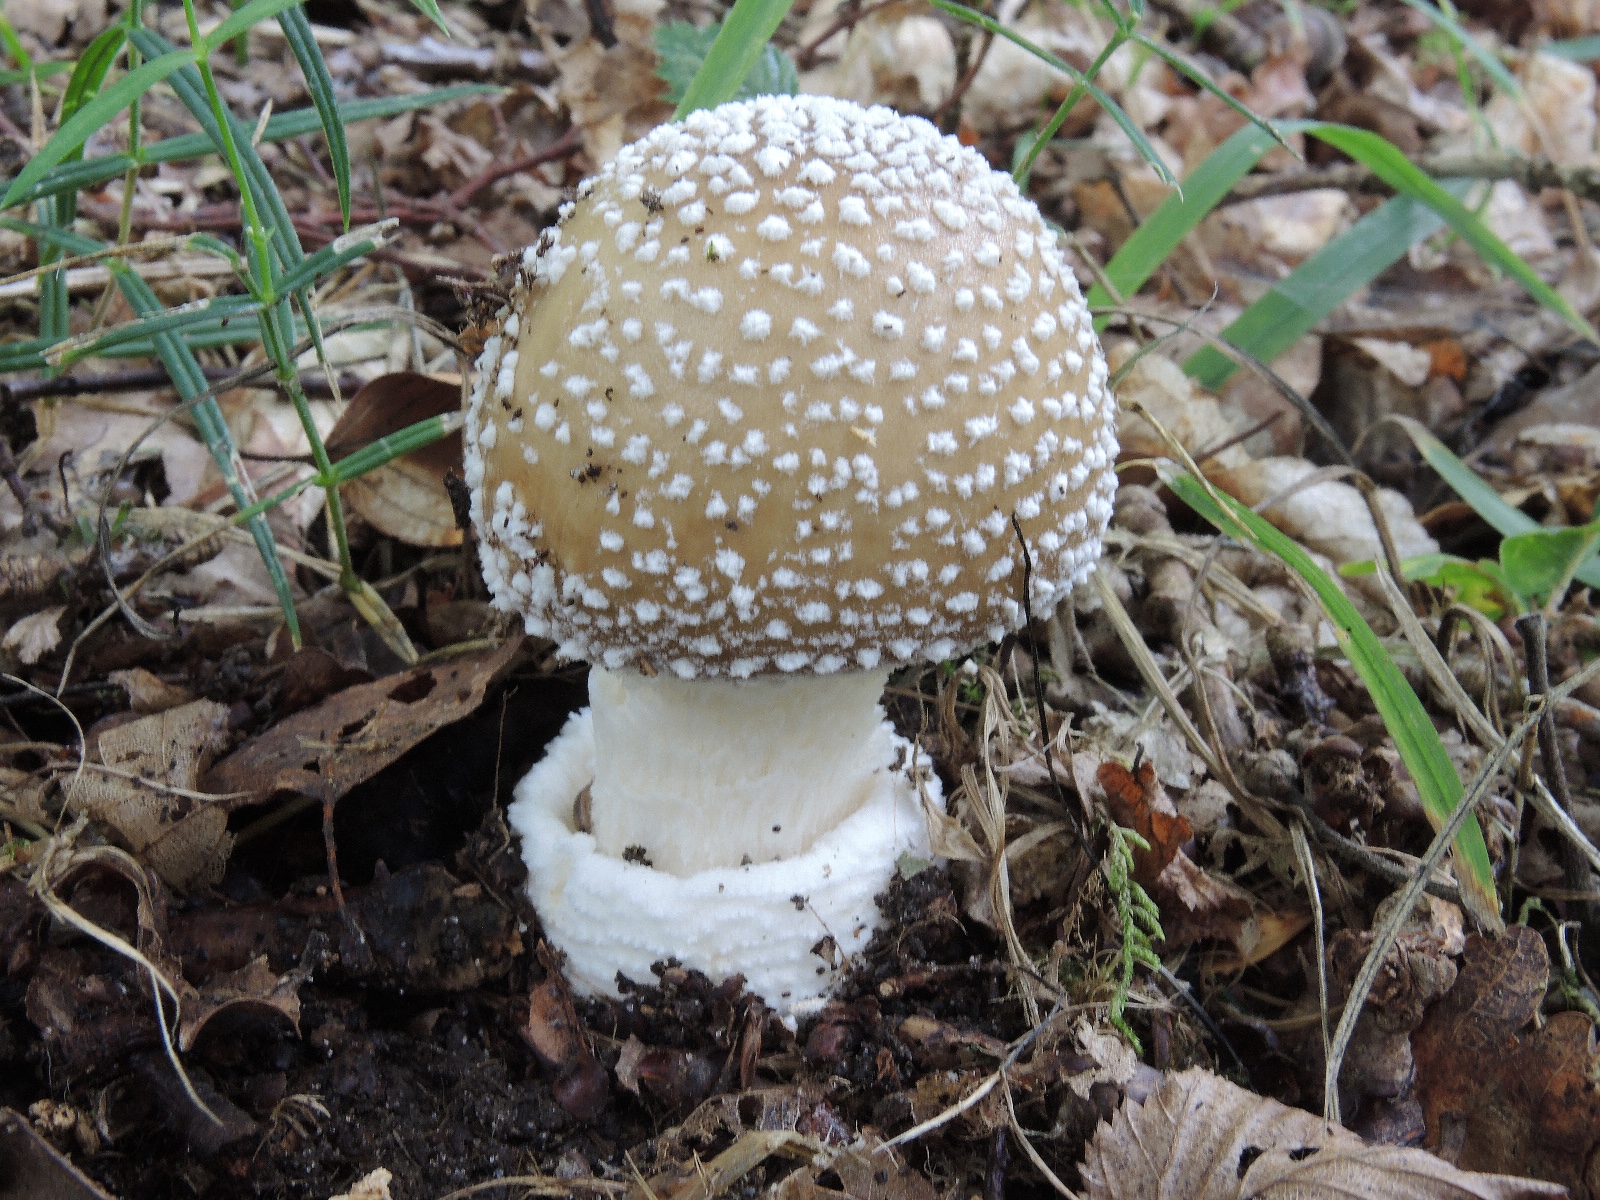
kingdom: Fungi
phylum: Basidiomycota
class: Agaricomycetes
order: Agaricales
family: Amanitaceae
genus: Amanita
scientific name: Amanita pantherina
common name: panter-fluesvamp
